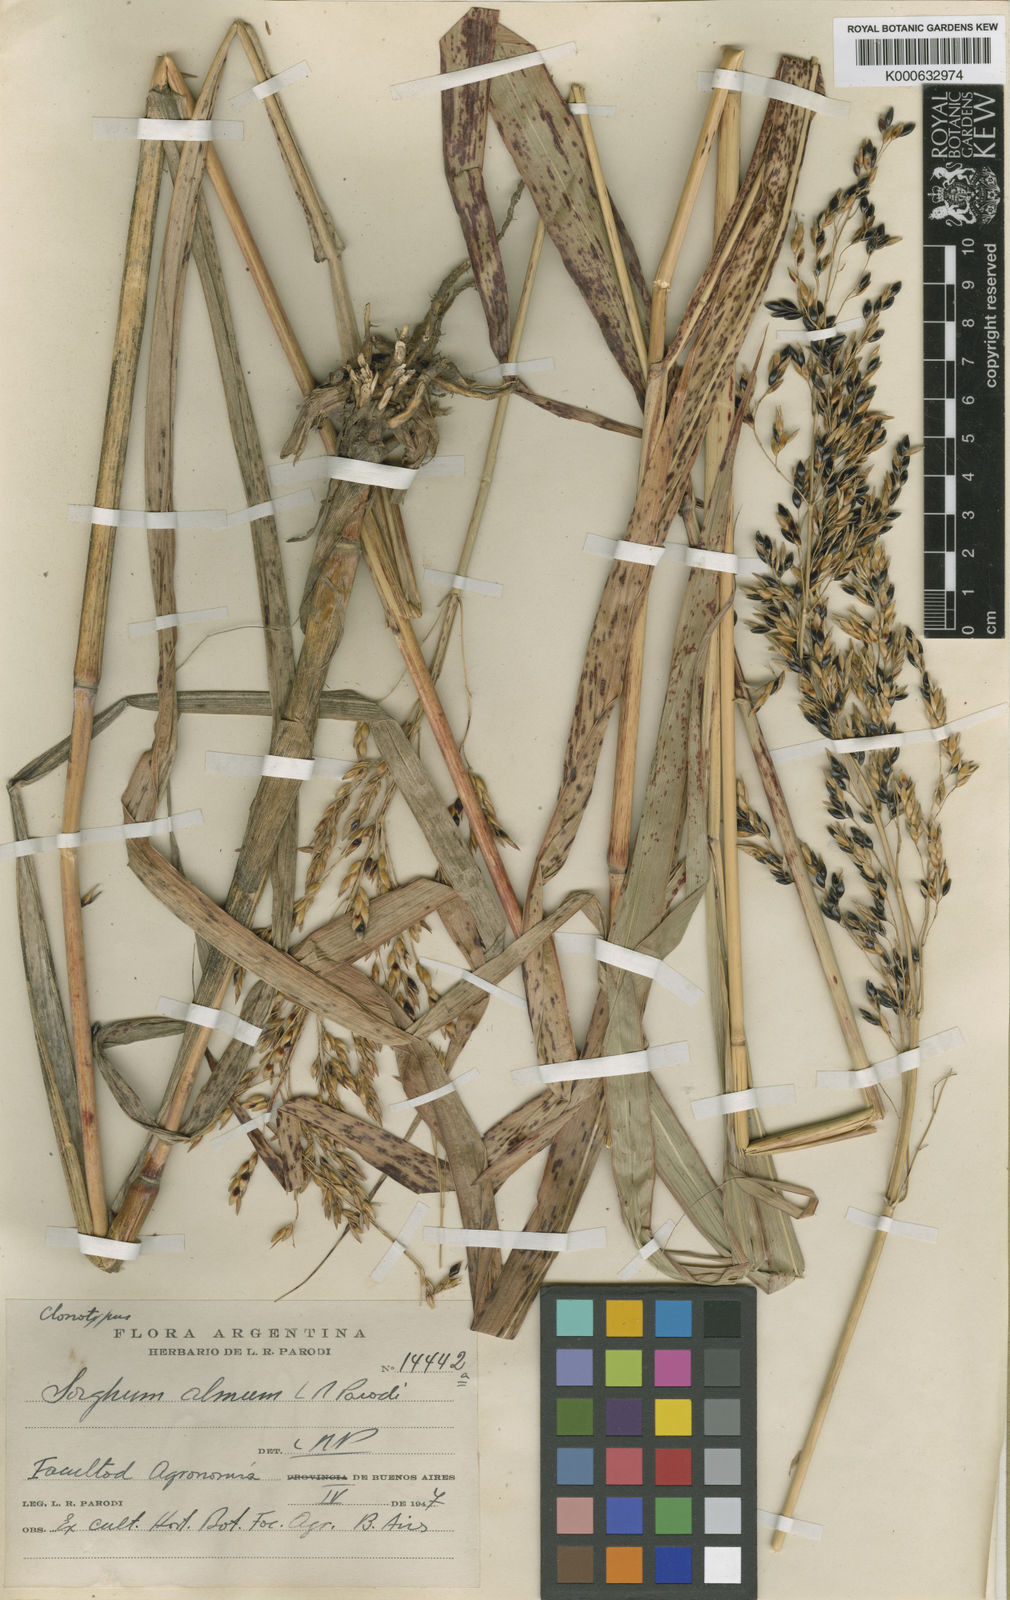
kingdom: Plantae
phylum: Tracheophyta
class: Liliopsida
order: Poales
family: Poaceae
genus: Sorghum
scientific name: Sorghum almum
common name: Columbus grass
